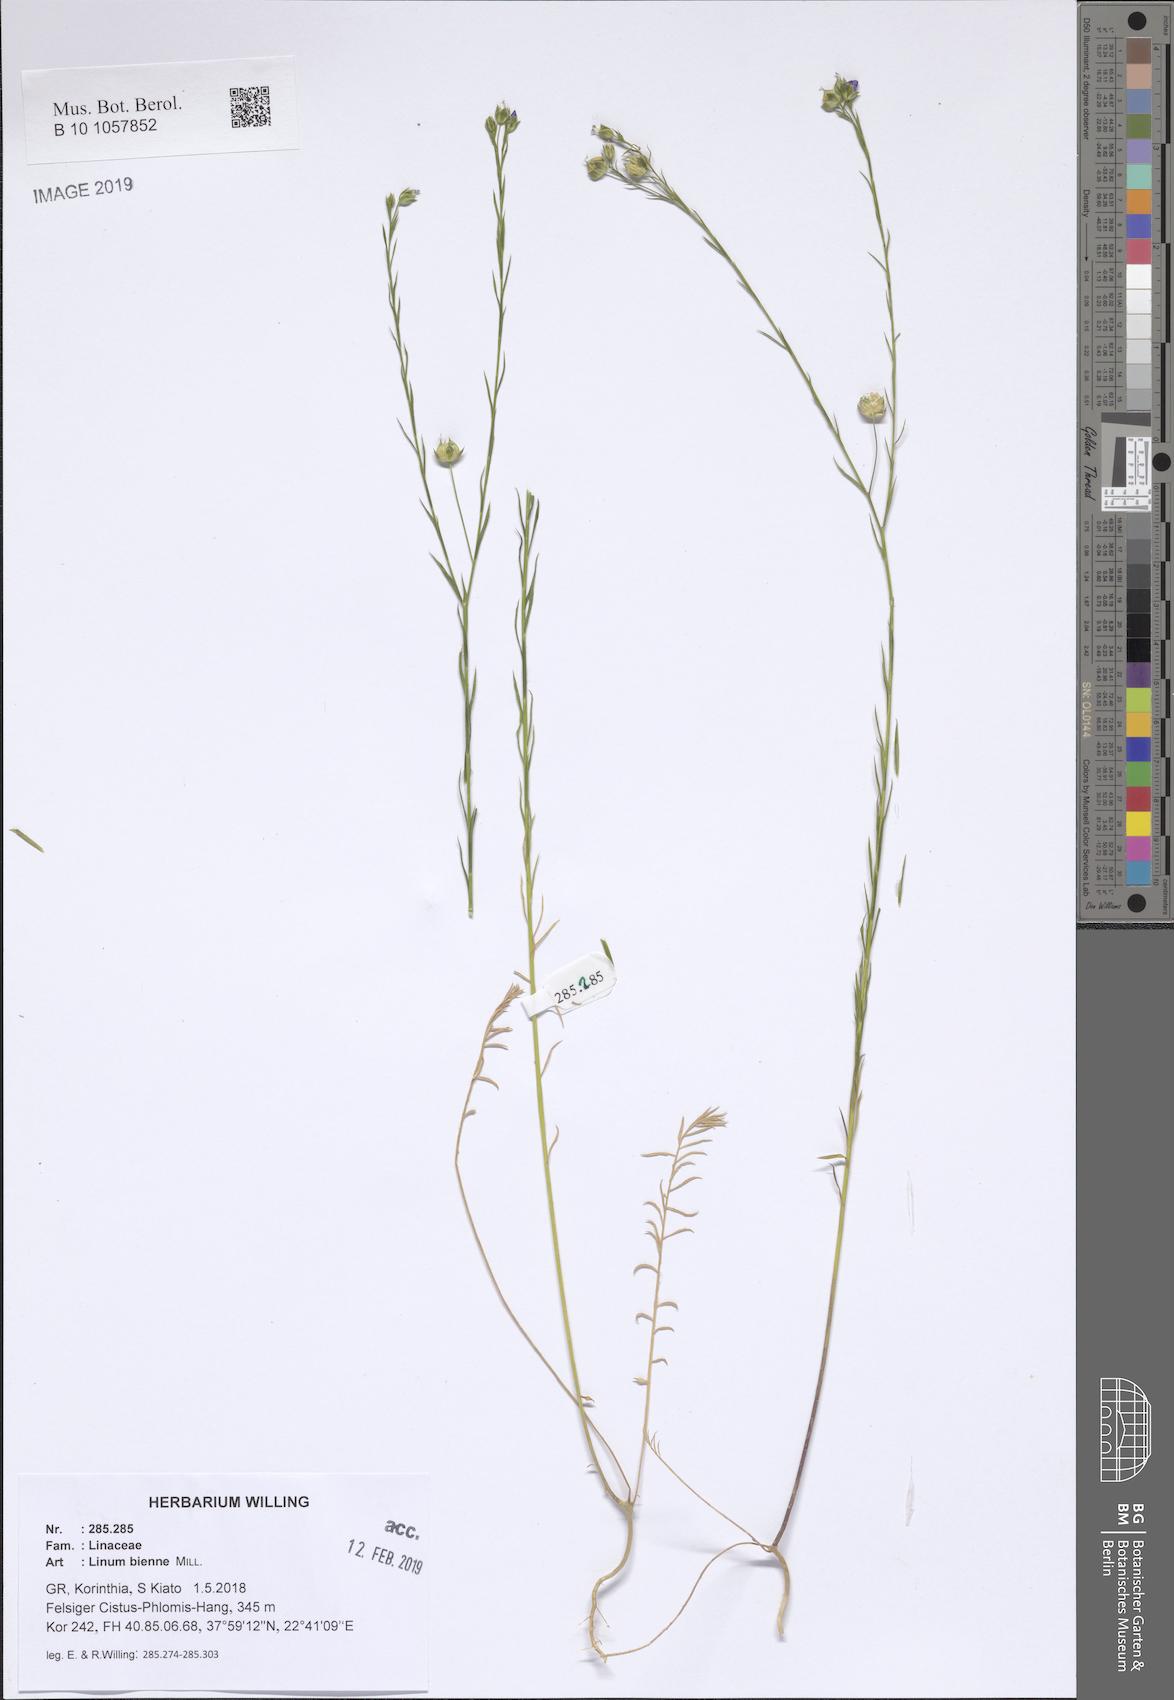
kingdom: Plantae
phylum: Tracheophyta
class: Magnoliopsida
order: Malpighiales
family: Linaceae
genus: Linum
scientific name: Linum bienne
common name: Pale flax
